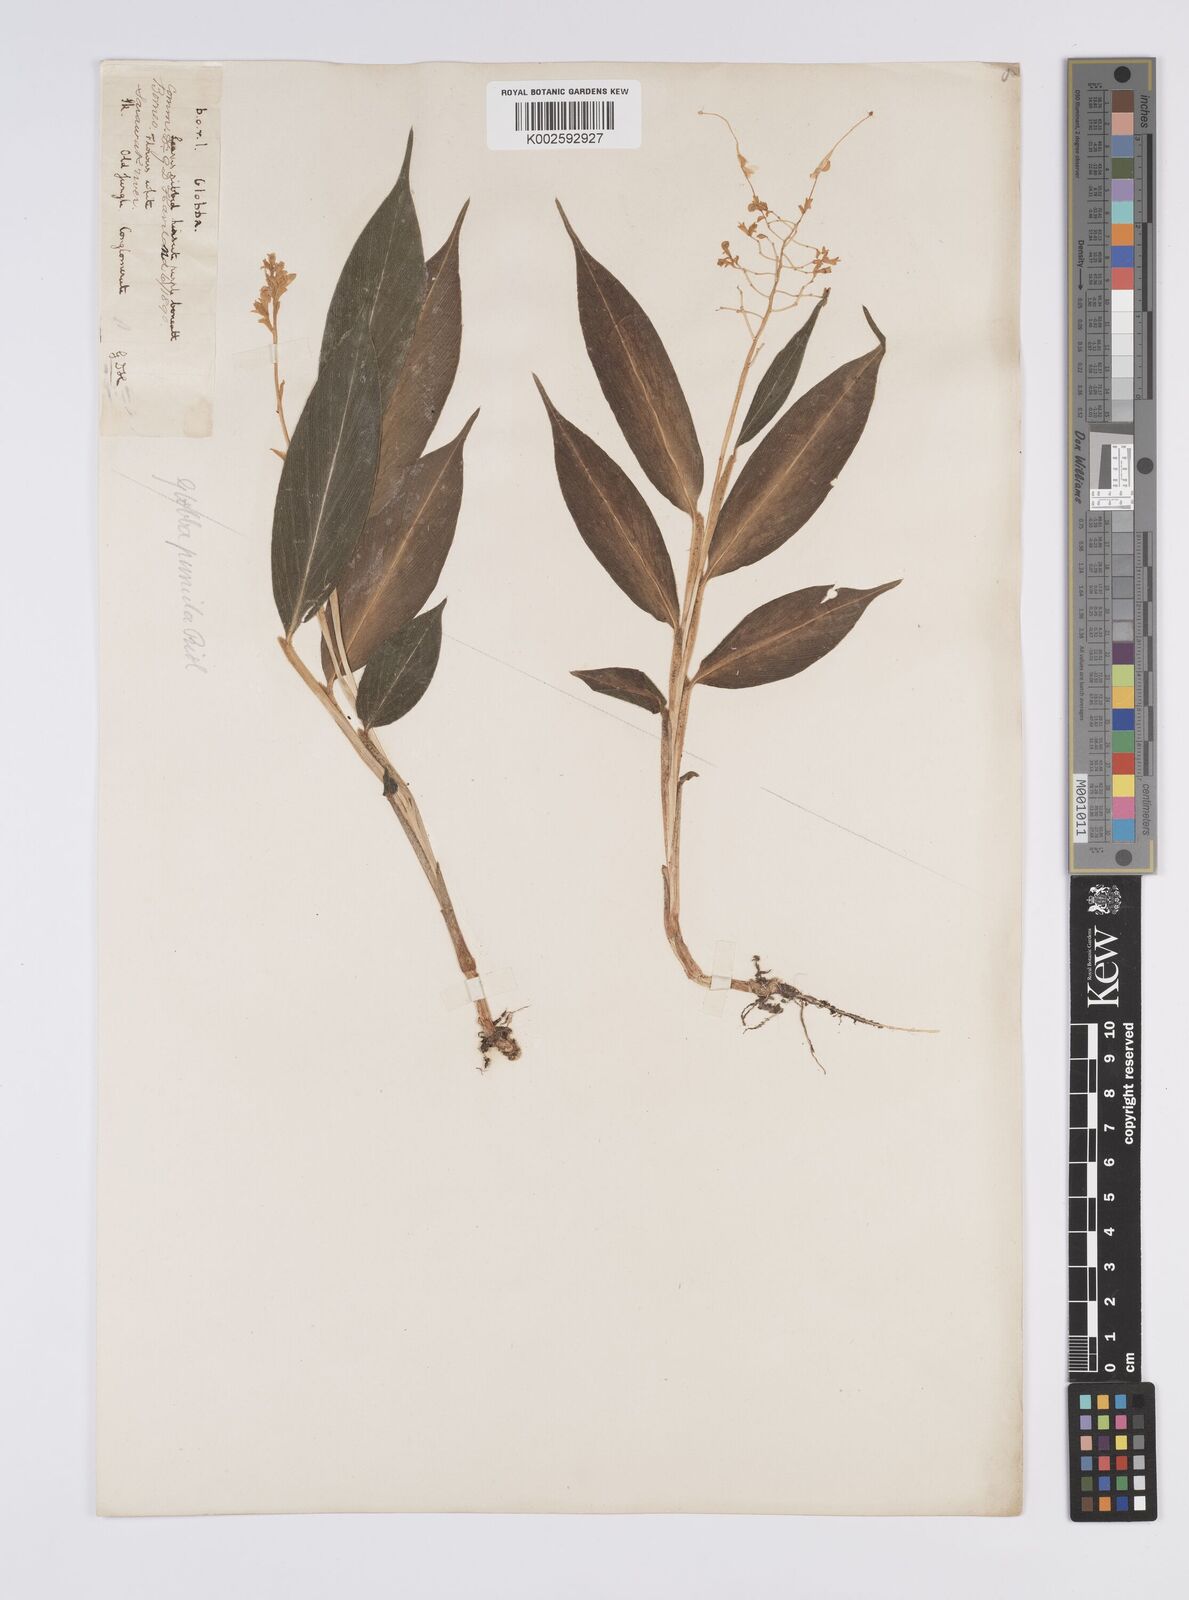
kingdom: Plantae
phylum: Tracheophyta
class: Liliopsida
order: Zingiberales
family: Zingiberaceae
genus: Globba
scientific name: Globba pumila
